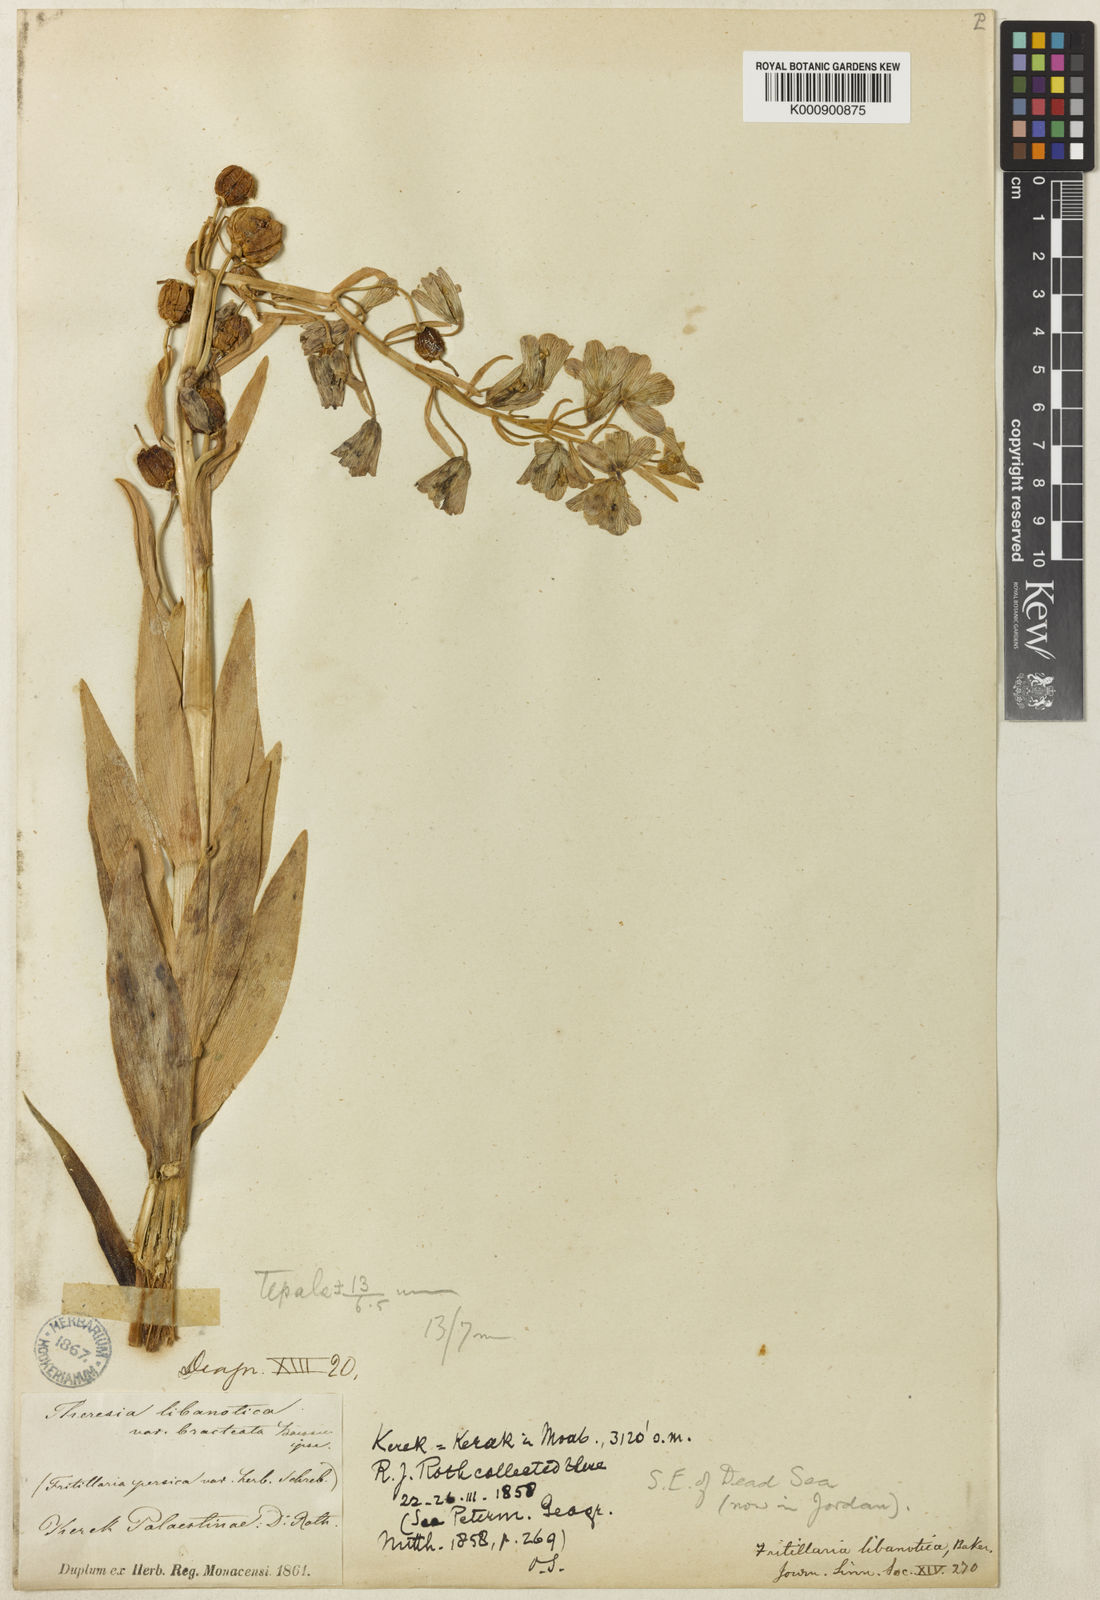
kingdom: Plantae
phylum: Tracheophyta
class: Liliopsida
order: Liliales
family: Liliaceae
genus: Fritillaria
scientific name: Fritillaria persica
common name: Persian fritillary
